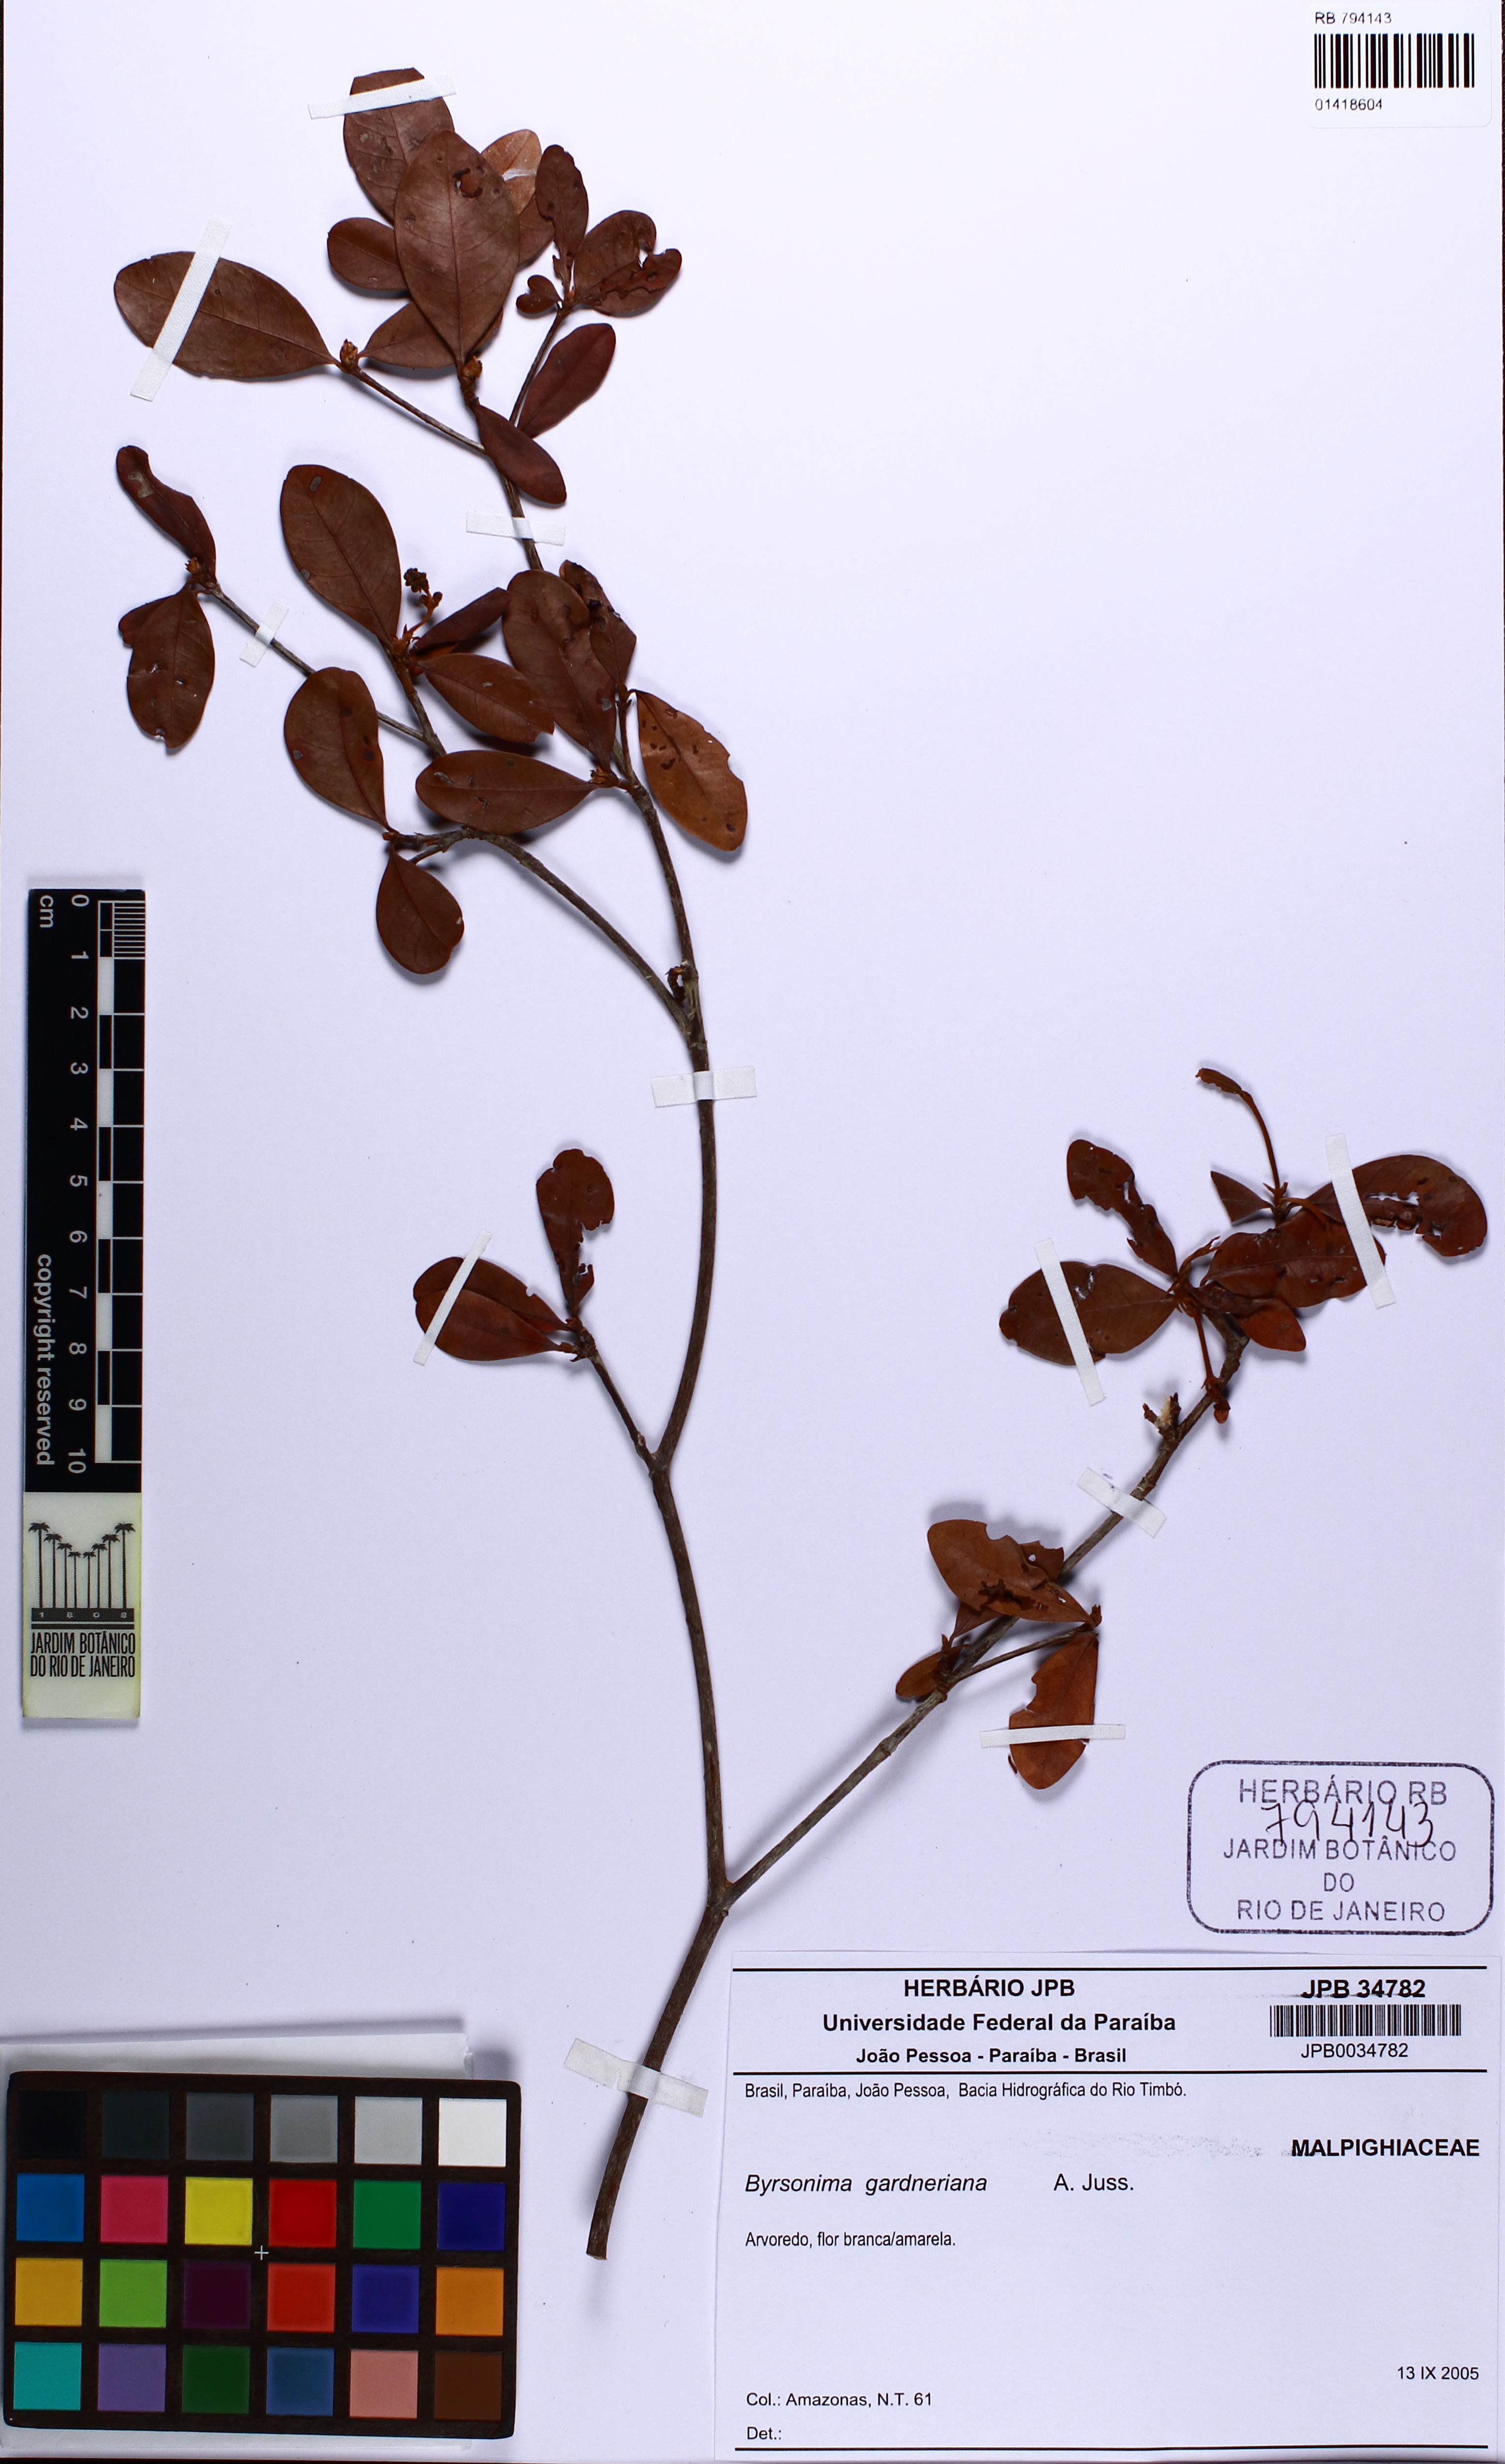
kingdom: Plantae
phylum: Tracheophyta
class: Magnoliopsida
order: Malpighiales
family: Malpighiaceae
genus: Byrsonima
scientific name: Byrsonima gardneriana
